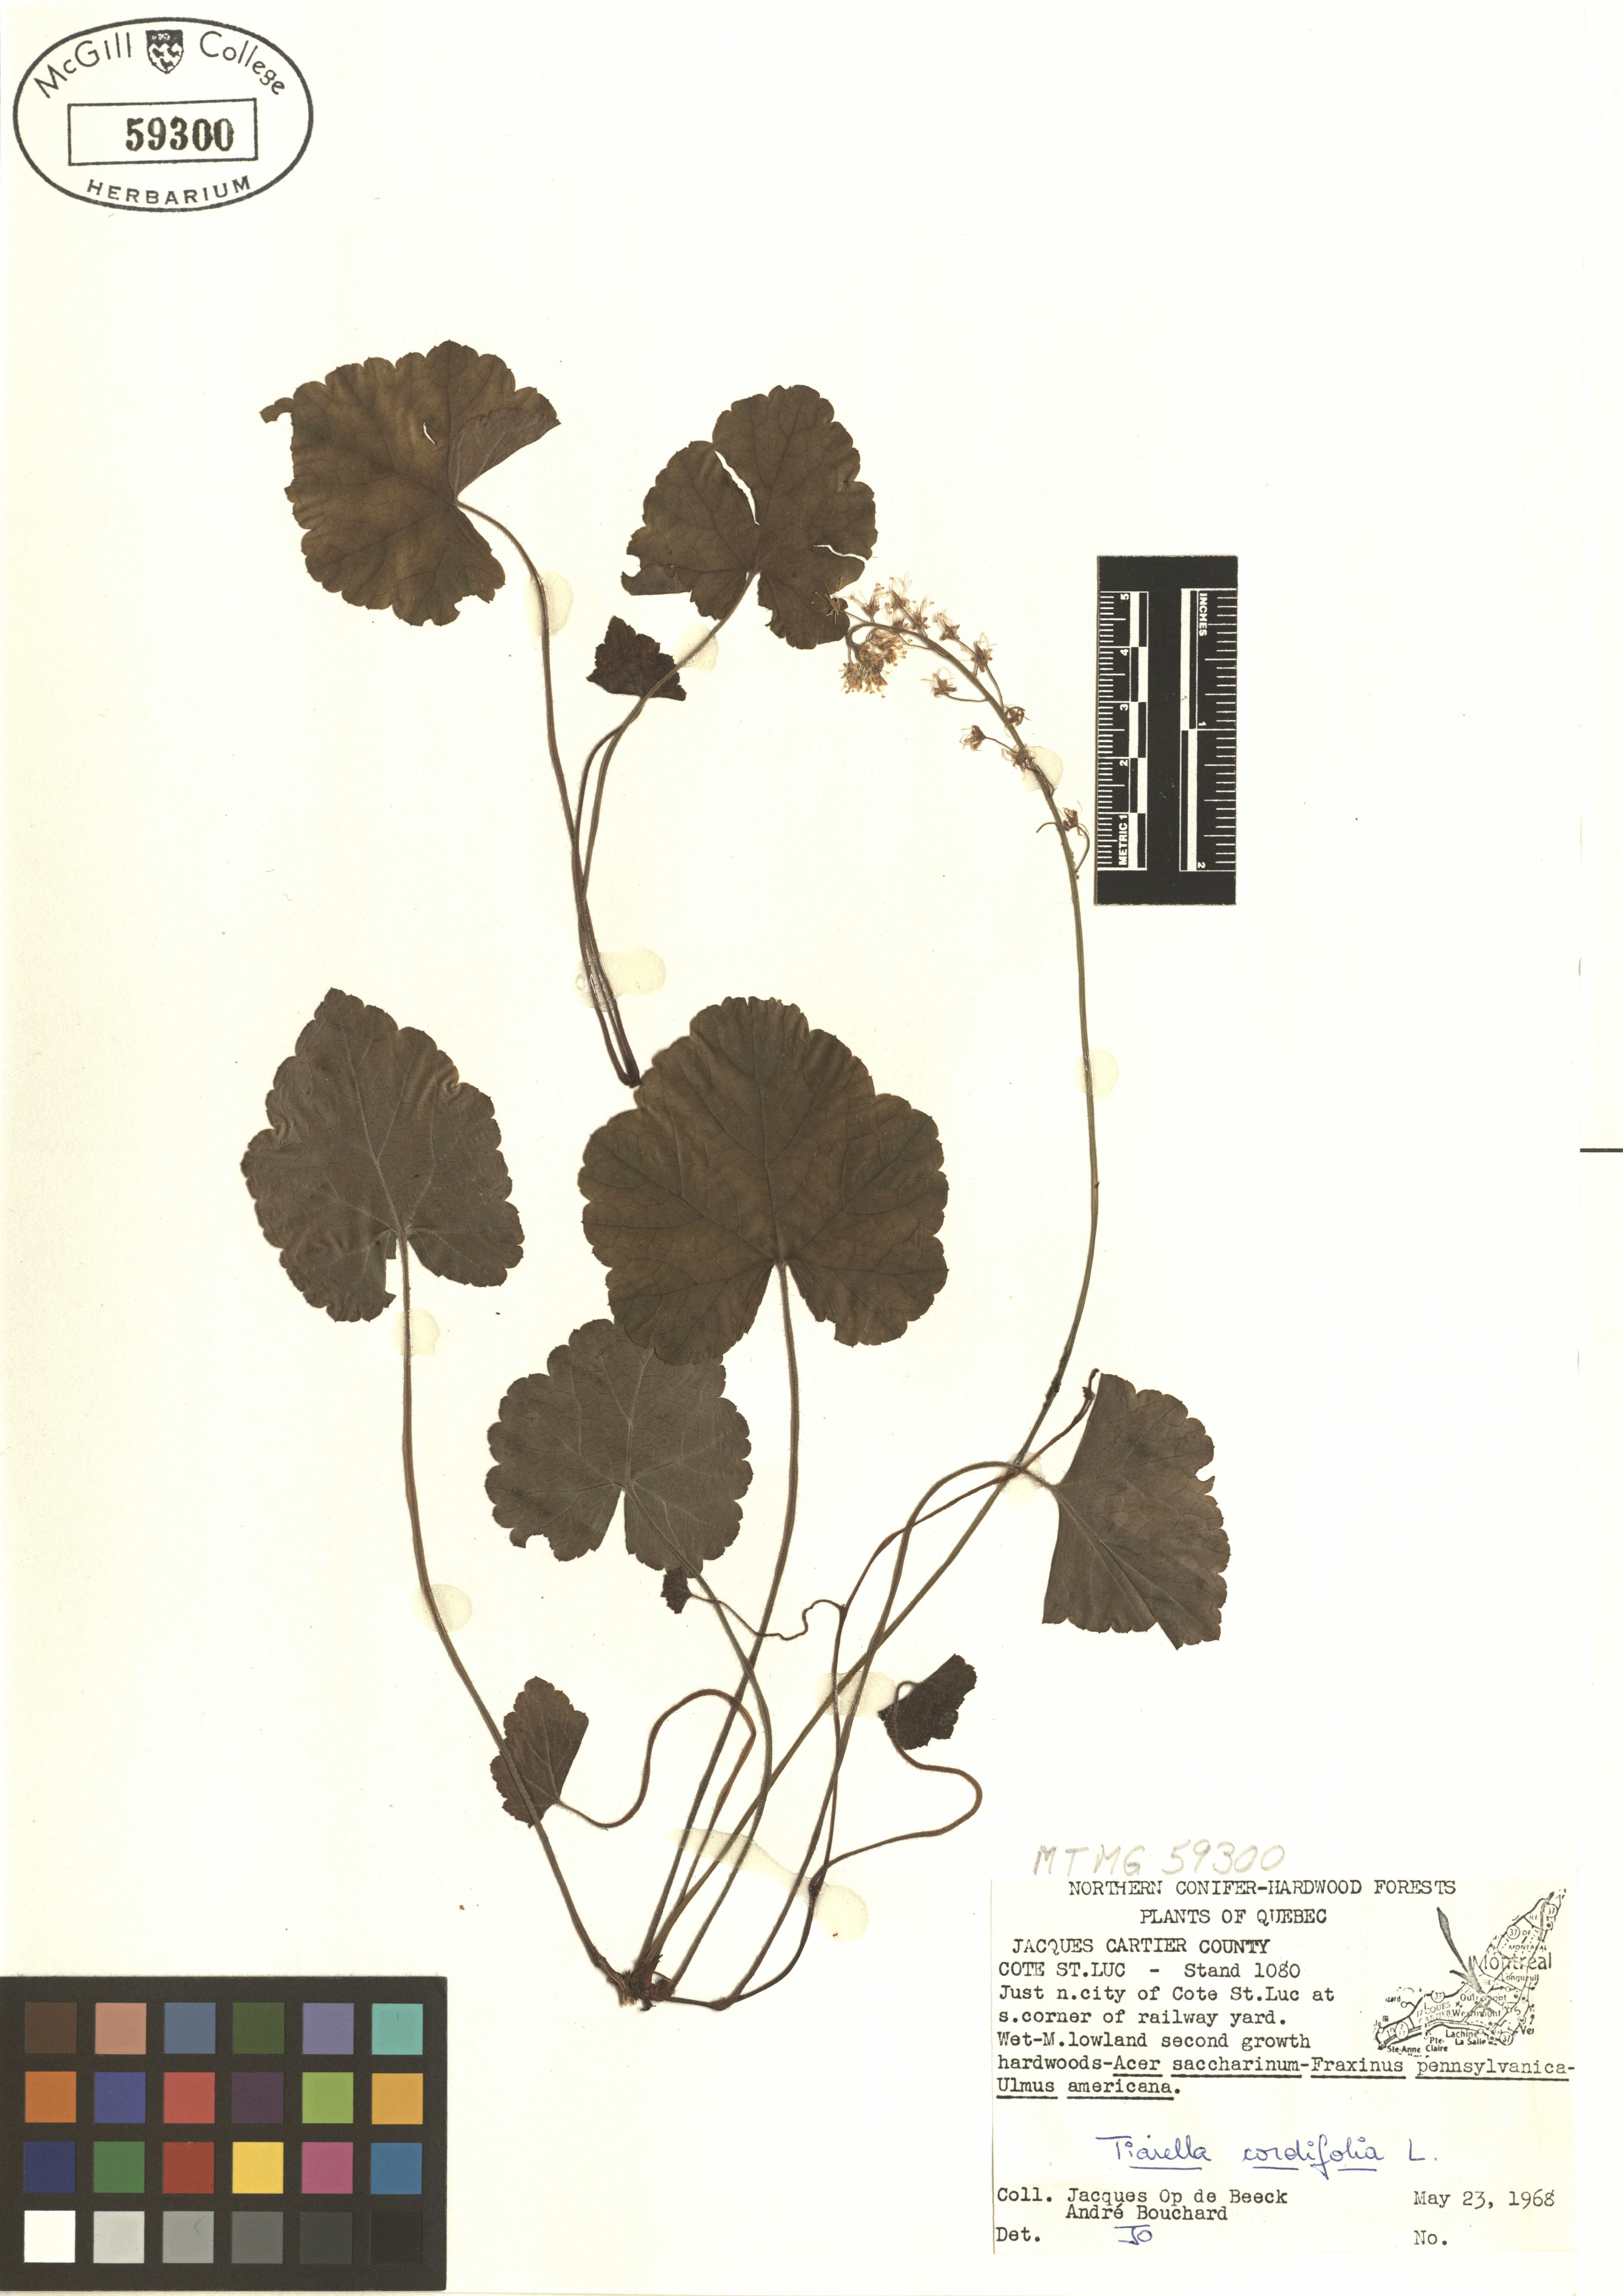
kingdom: Plantae
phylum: Tracheophyta
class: Magnoliopsida
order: Saxifragales
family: Saxifragaceae
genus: Tiarella
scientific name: Tiarella cordifolia
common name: Foamflower
